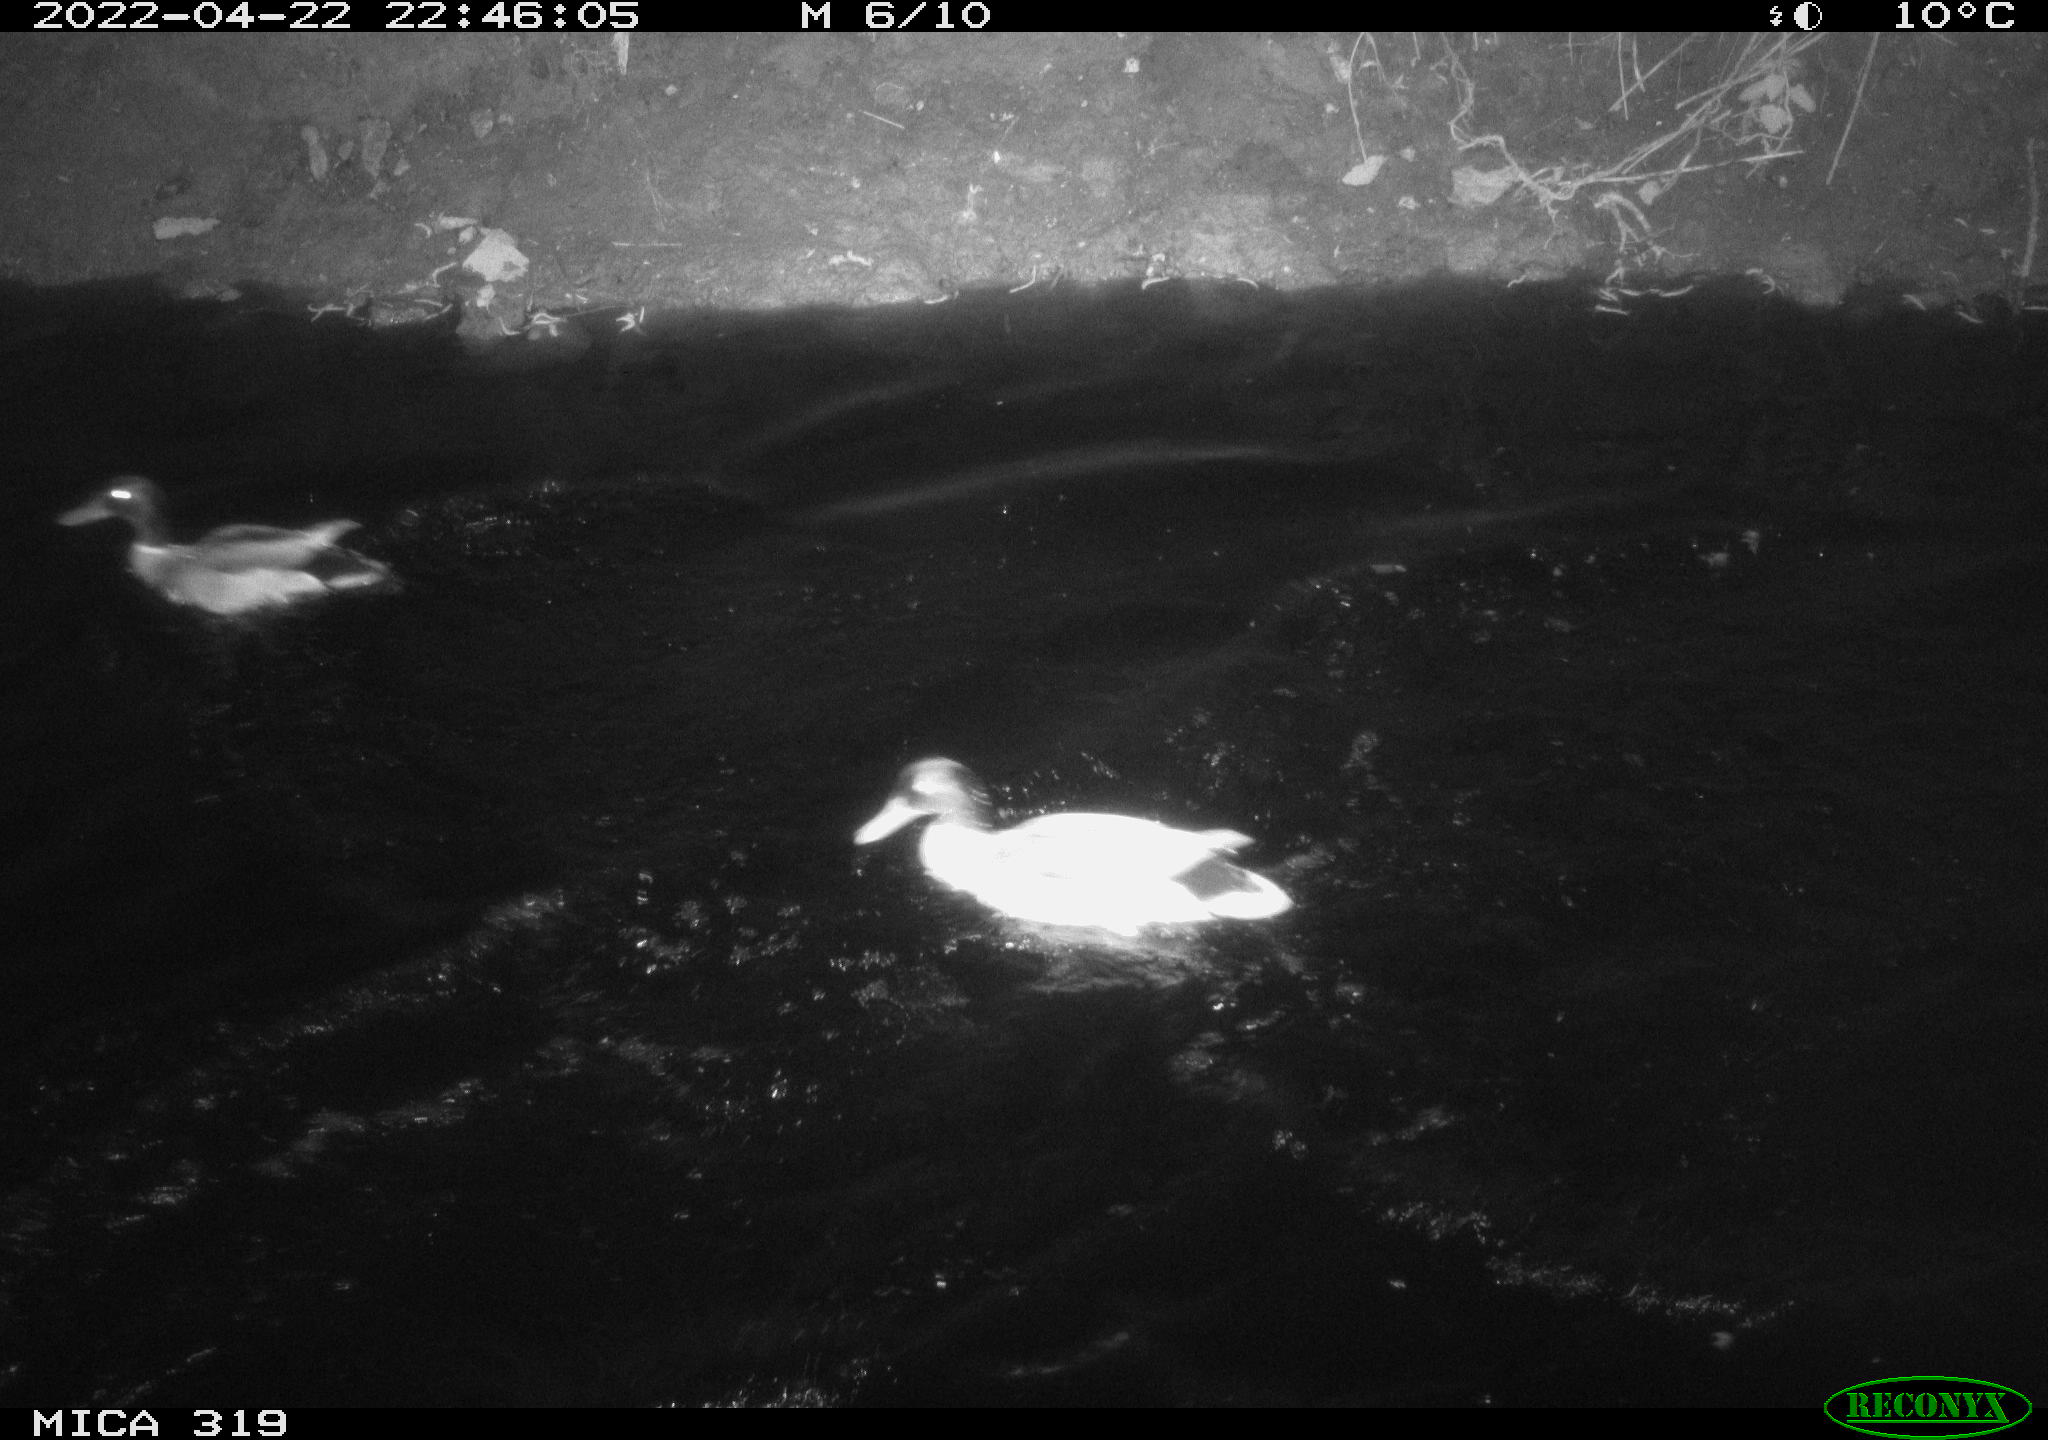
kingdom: Animalia
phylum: Chordata
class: Aves
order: Anseriformes
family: Anatidae
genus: Anas
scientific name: Anas platyrhynchos
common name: Mallard
